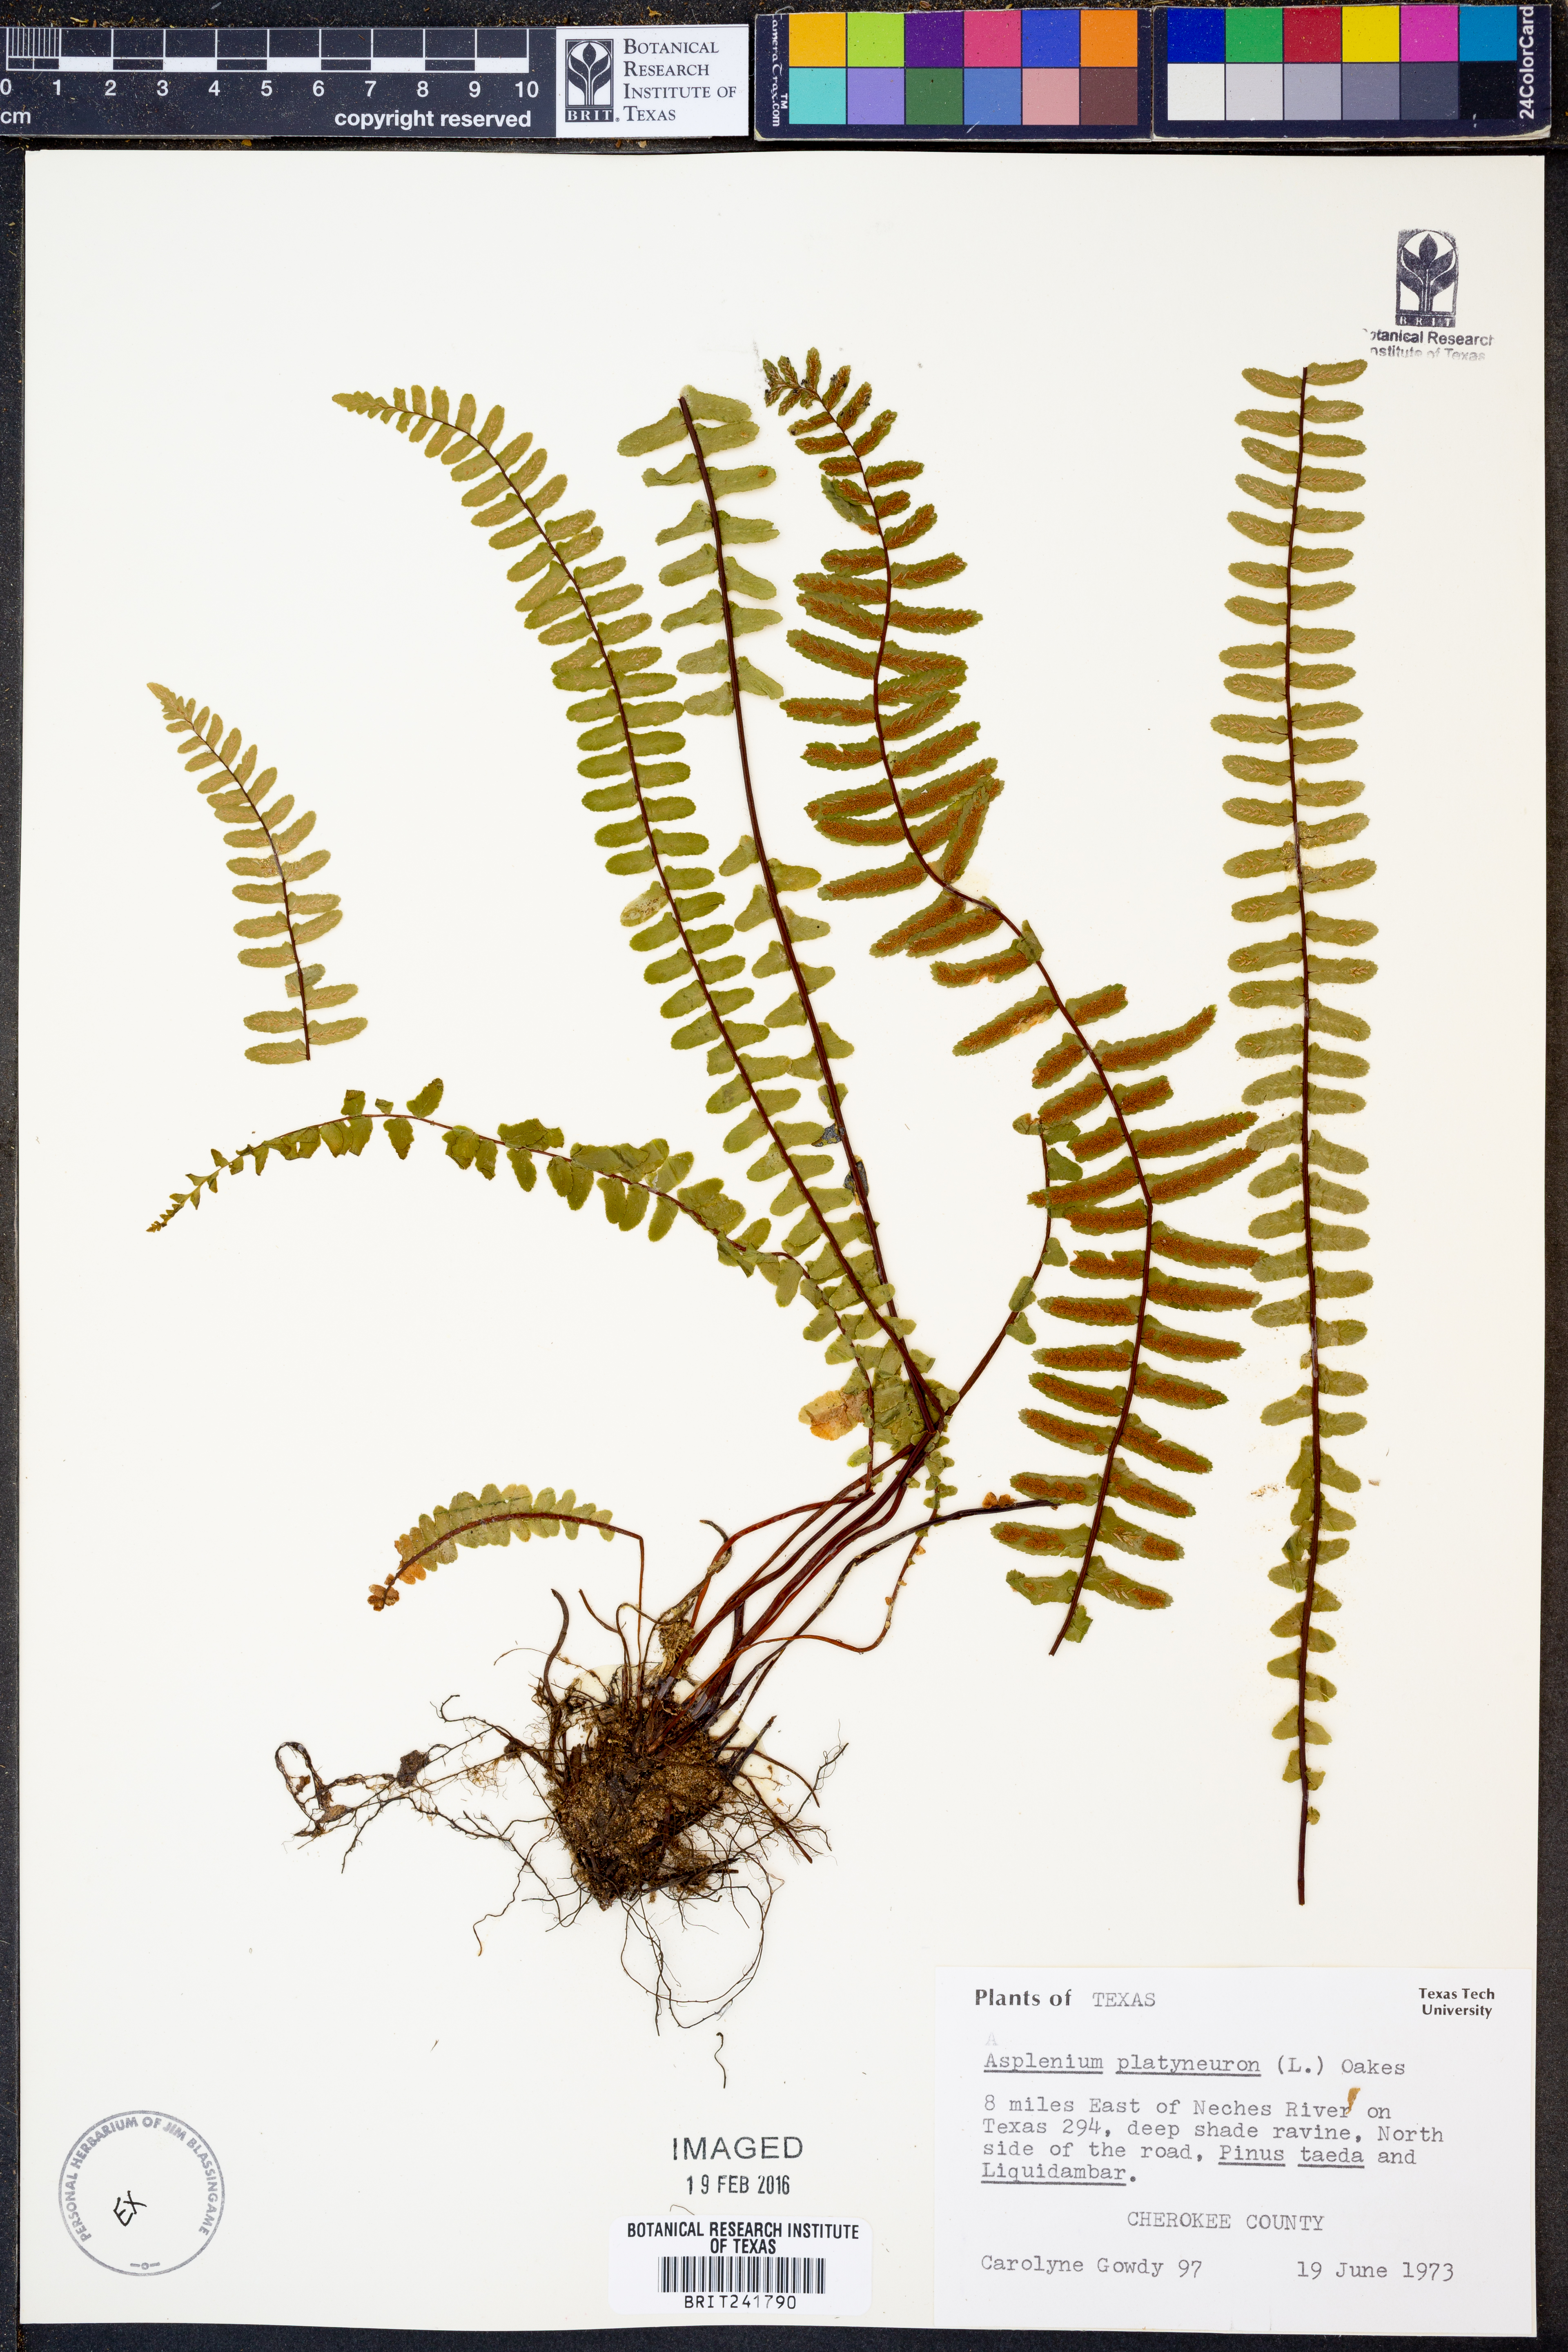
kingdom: Plantae
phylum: Tracheophyta
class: Polypodiopsida
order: Polypodiales
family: Aspleniaceae
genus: Asplenium
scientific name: Asplenium platyneuron
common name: Ebony spleenwort
